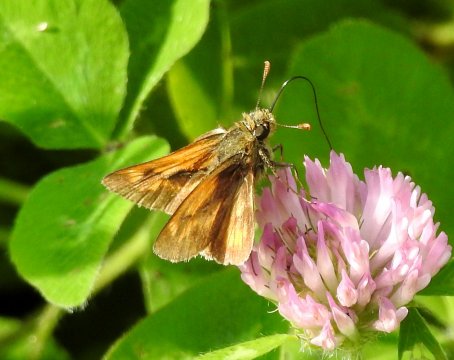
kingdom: Animalia
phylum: Arthropoda
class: Insecta
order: Lepidoptera
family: Hesperiidae
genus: Polites
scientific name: Polites
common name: Long Dash Skipper
